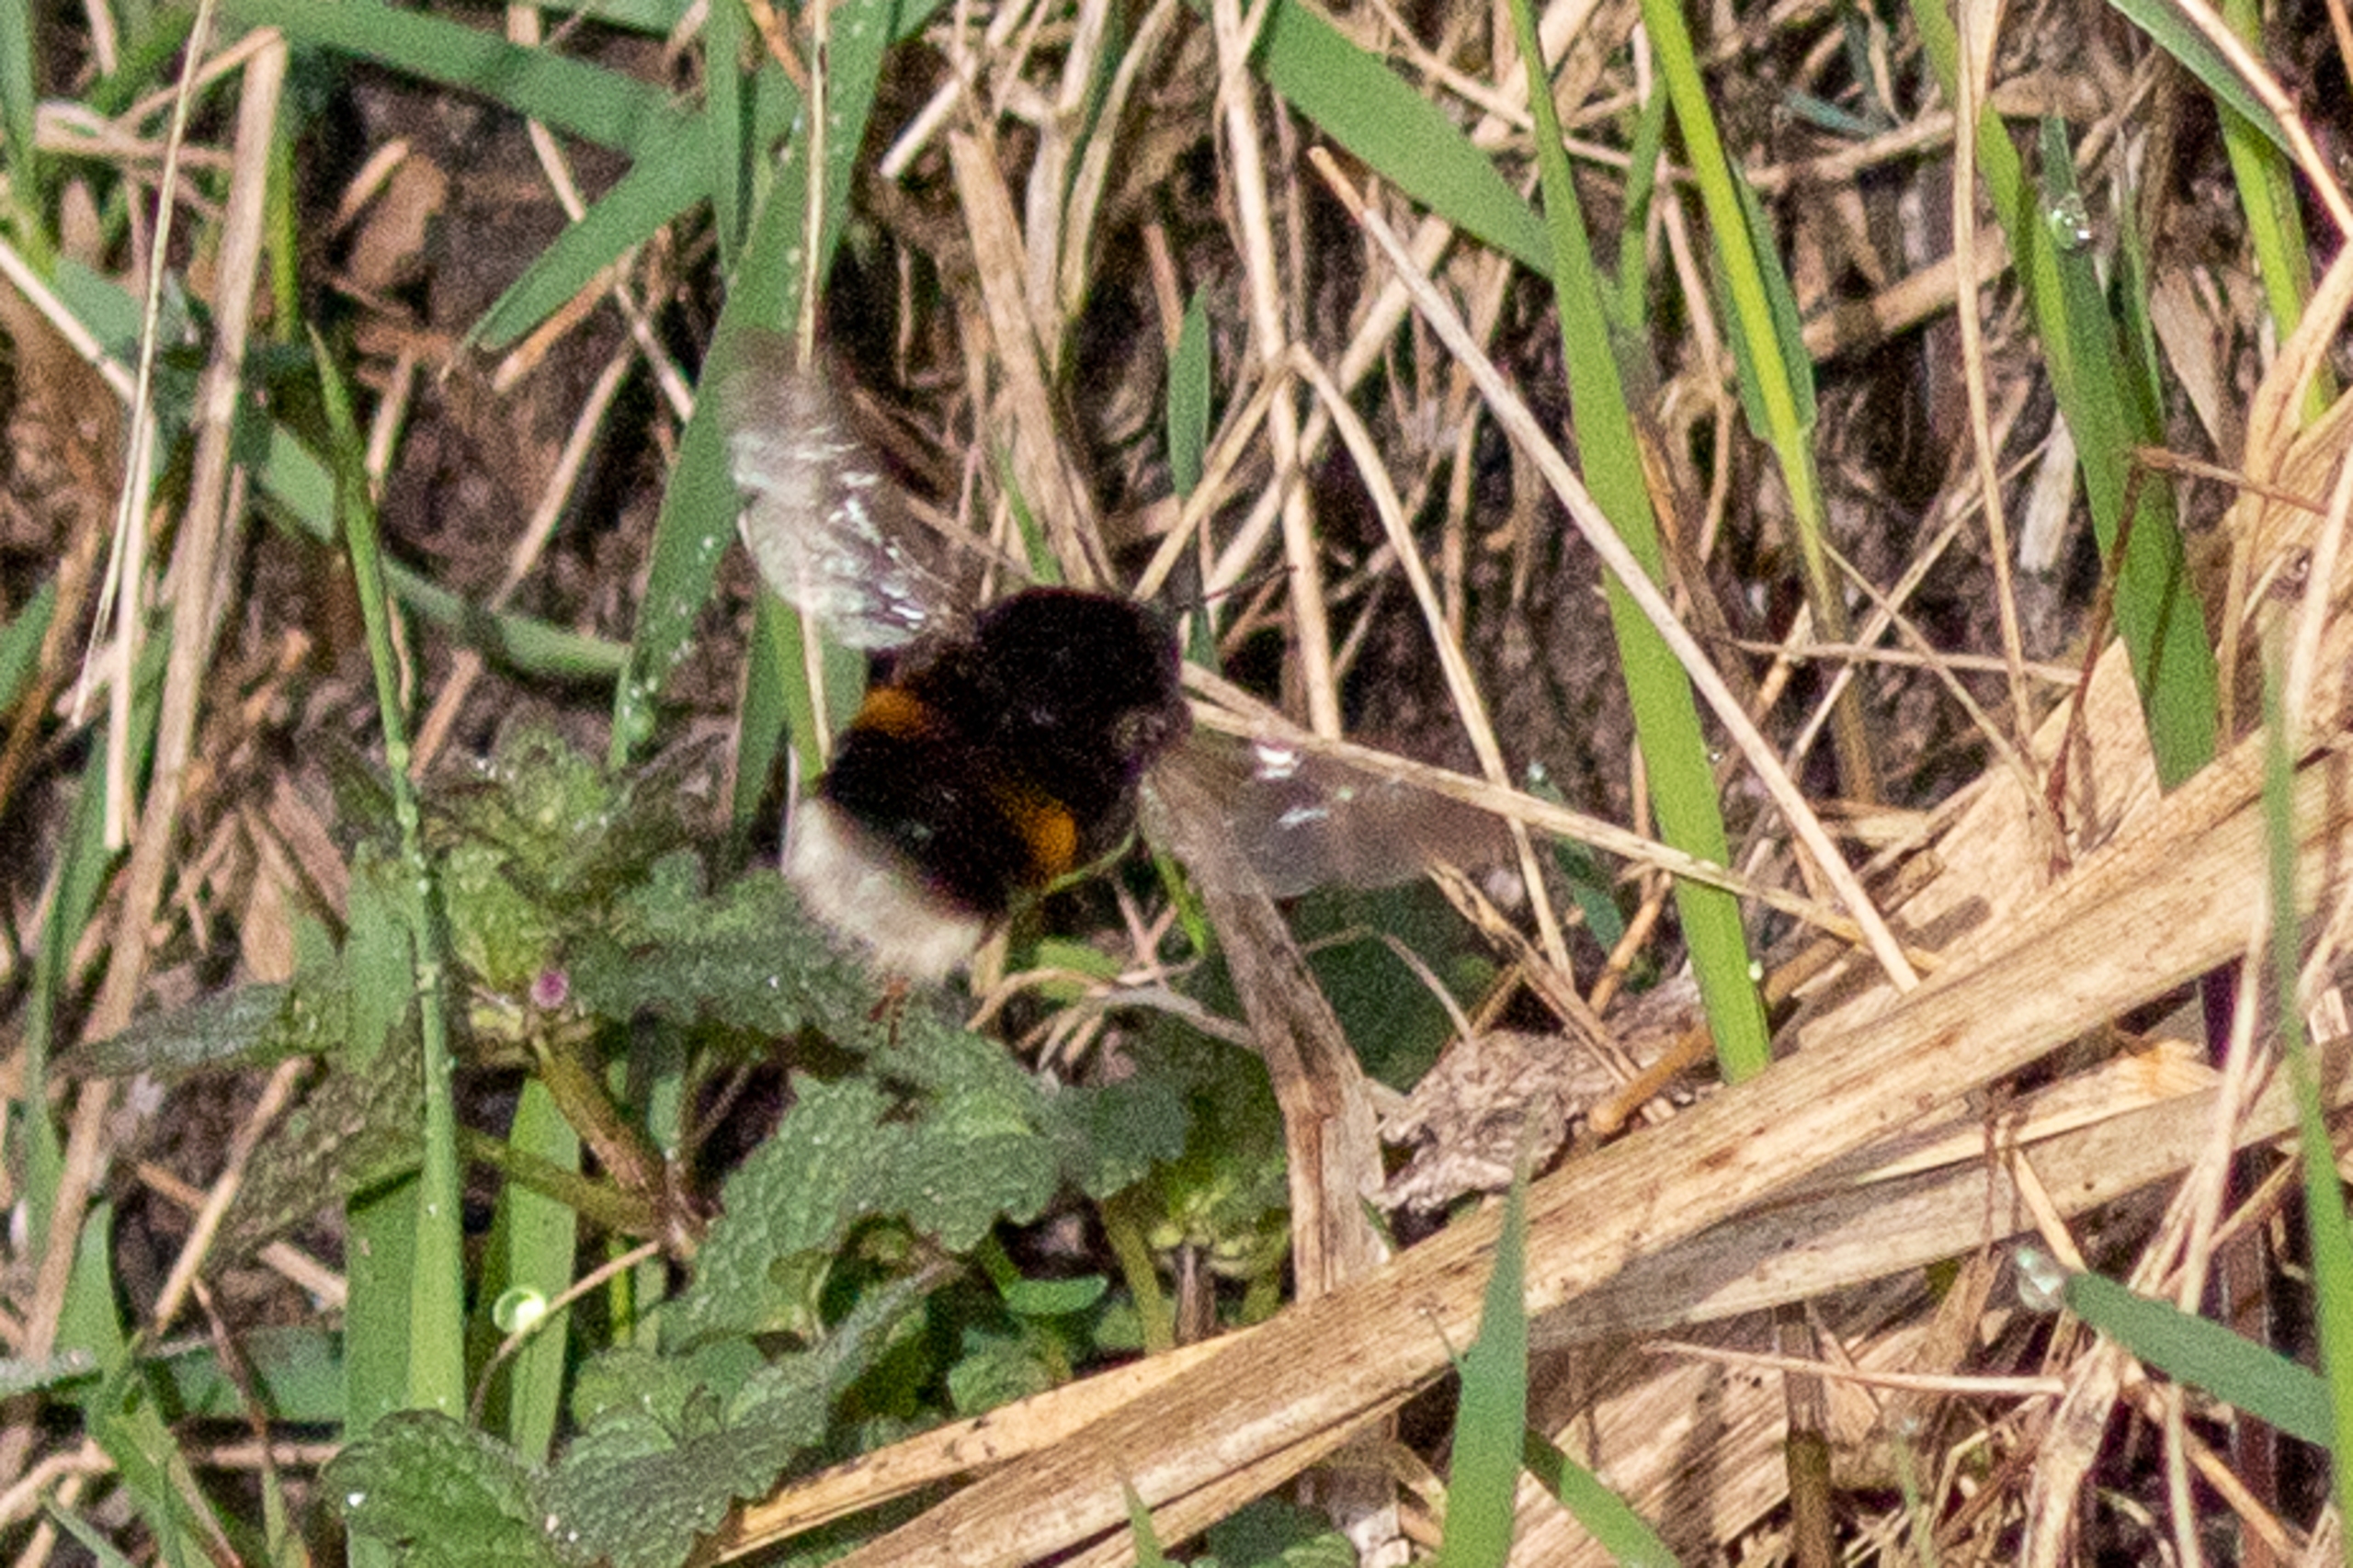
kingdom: Animalia
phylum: Arthropoda
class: Insecta
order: Hymenoptera
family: Apidae
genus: Bombus
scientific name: Bombus terrestris
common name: Mørk jordhumle
